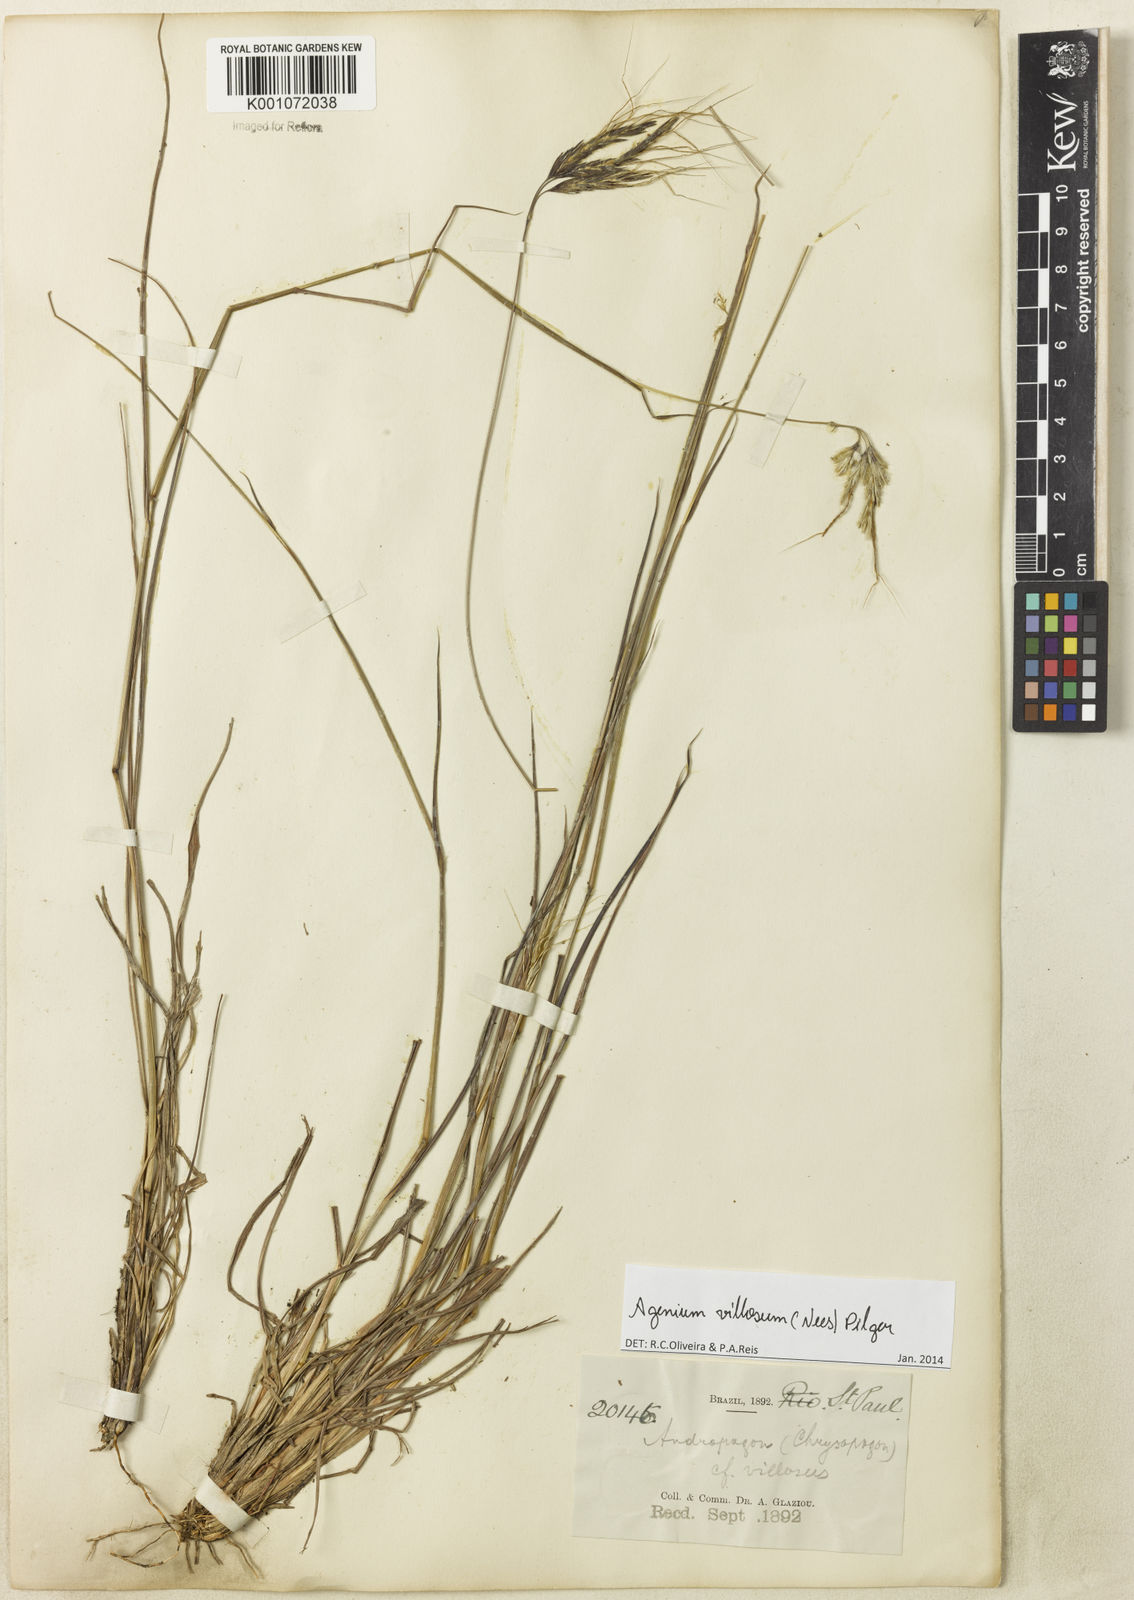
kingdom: Plantae
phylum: Tracheophyta
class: Liliopsida
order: Poales
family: Poaceae
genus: Agenium
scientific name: Agenium villosum
